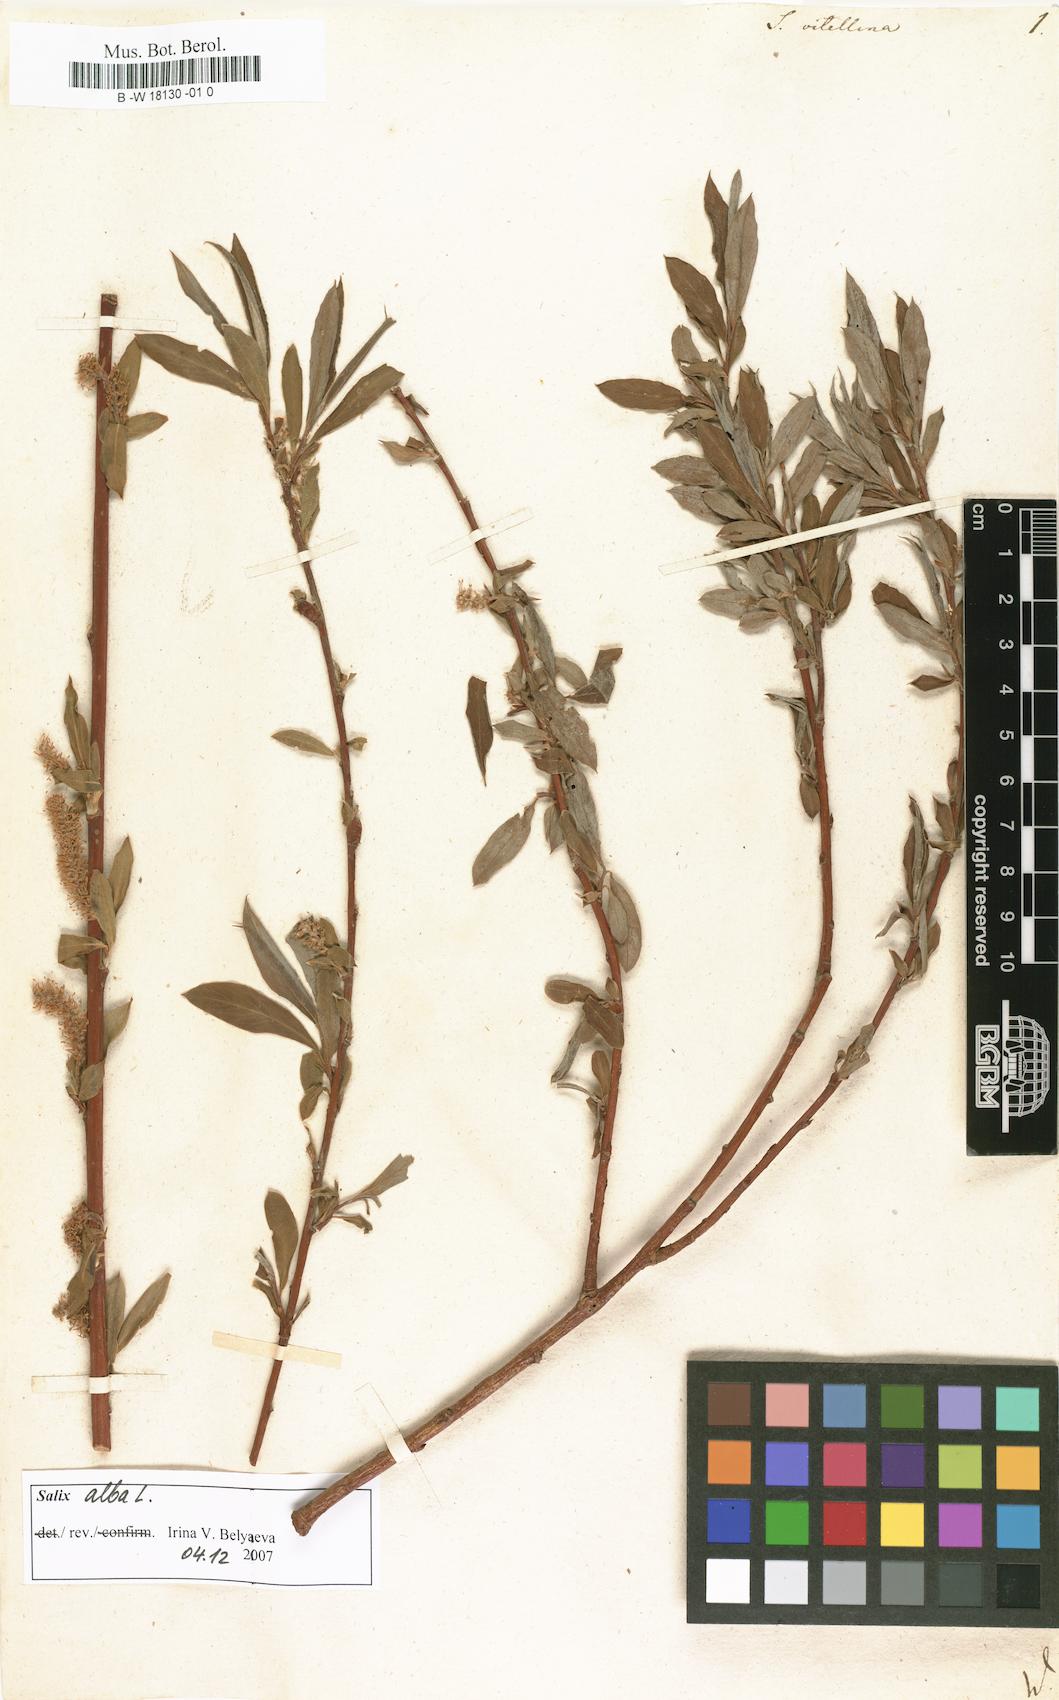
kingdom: Plantae
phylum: Tracheophyta
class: Magnoliopsida
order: Malpighiales
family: Salicaceae
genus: Salix
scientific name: Salix alba
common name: White willow
